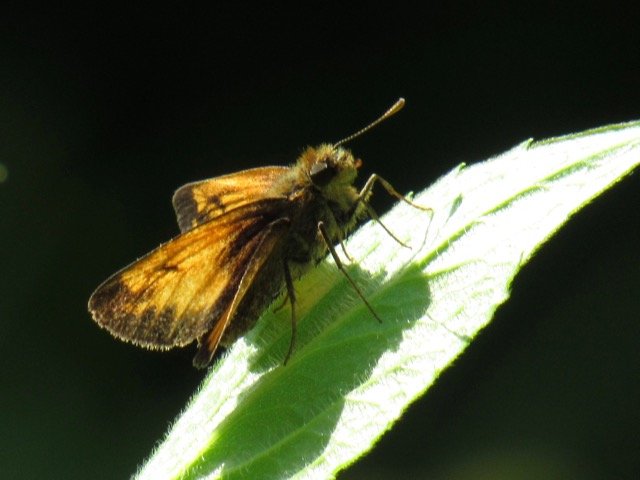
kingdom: Animalia
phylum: Arthropoda
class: Insecta
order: Lepidoptera
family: Hesperiidae
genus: Lon
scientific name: Lon hobomok
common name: Hobomok Skipper
